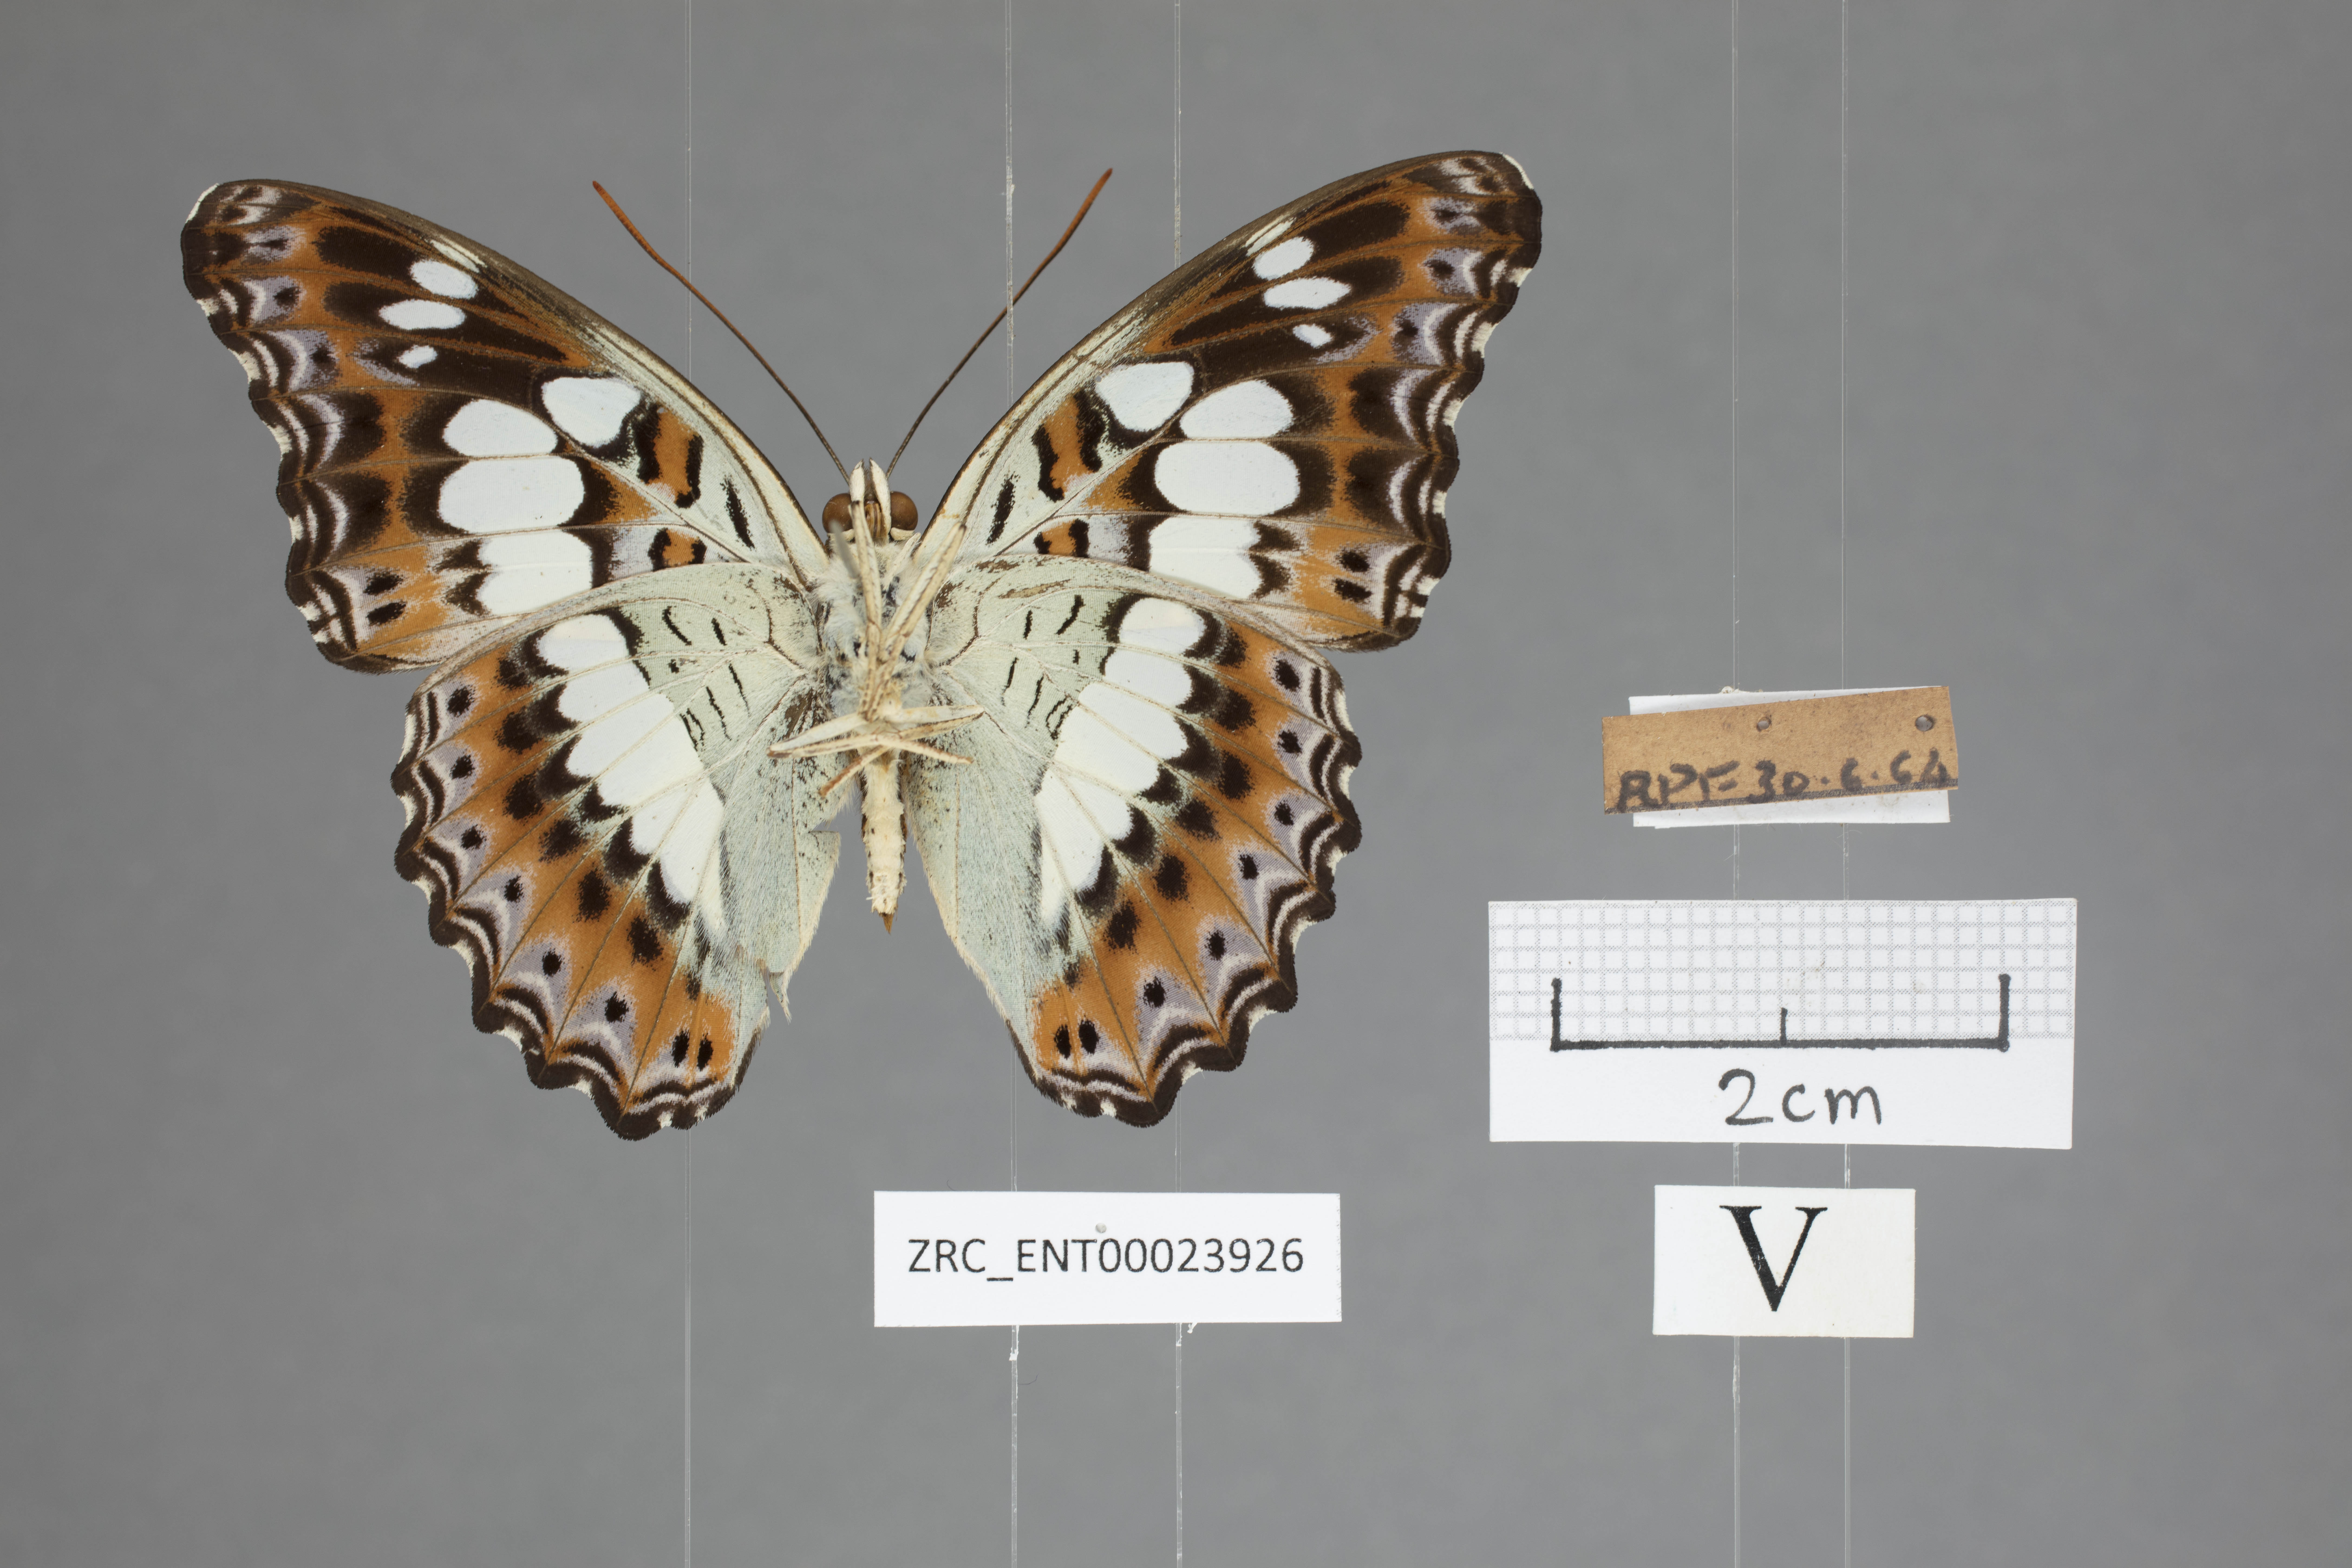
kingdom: Animalia
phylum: Arthropoda
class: Insecta
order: Lepidoptera
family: Nymphalidae
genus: Limenitis
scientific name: Limenitis Moduza procris
